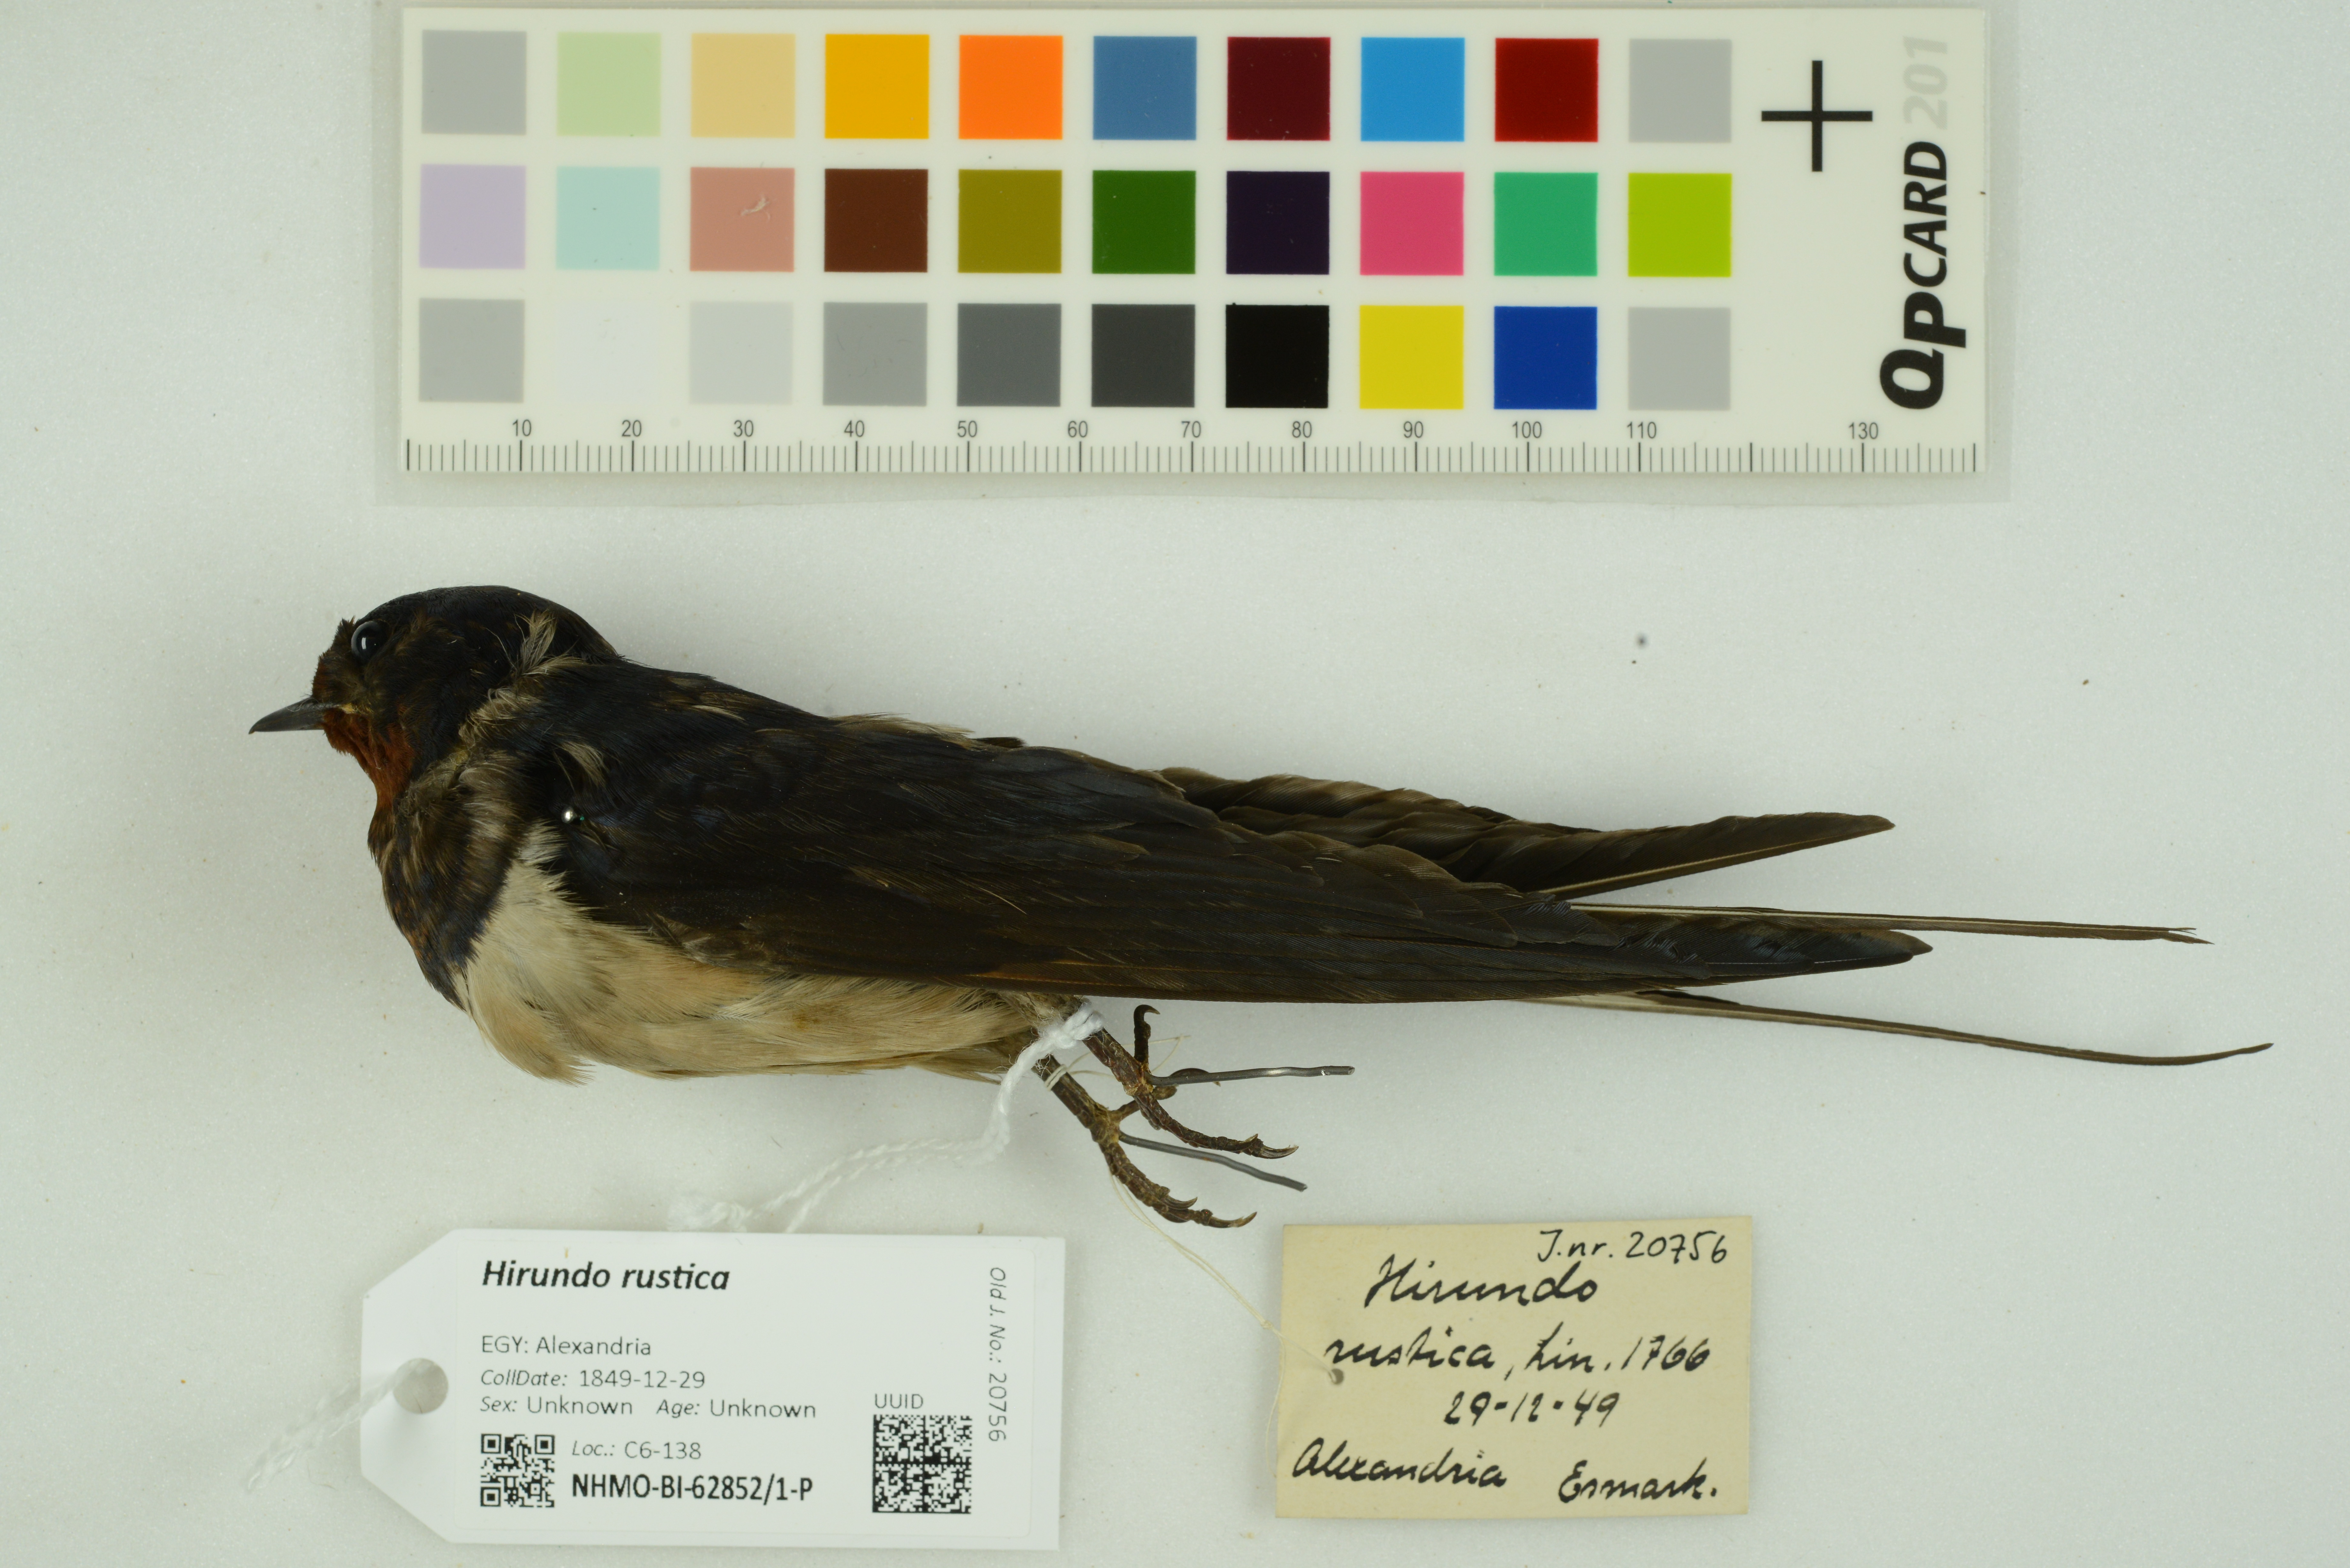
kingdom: Animalia
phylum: Chordata
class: Aves
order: Passeriformes
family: Hirundinidae
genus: Hirundo
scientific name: Hirundo rustica
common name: Barn swallow
